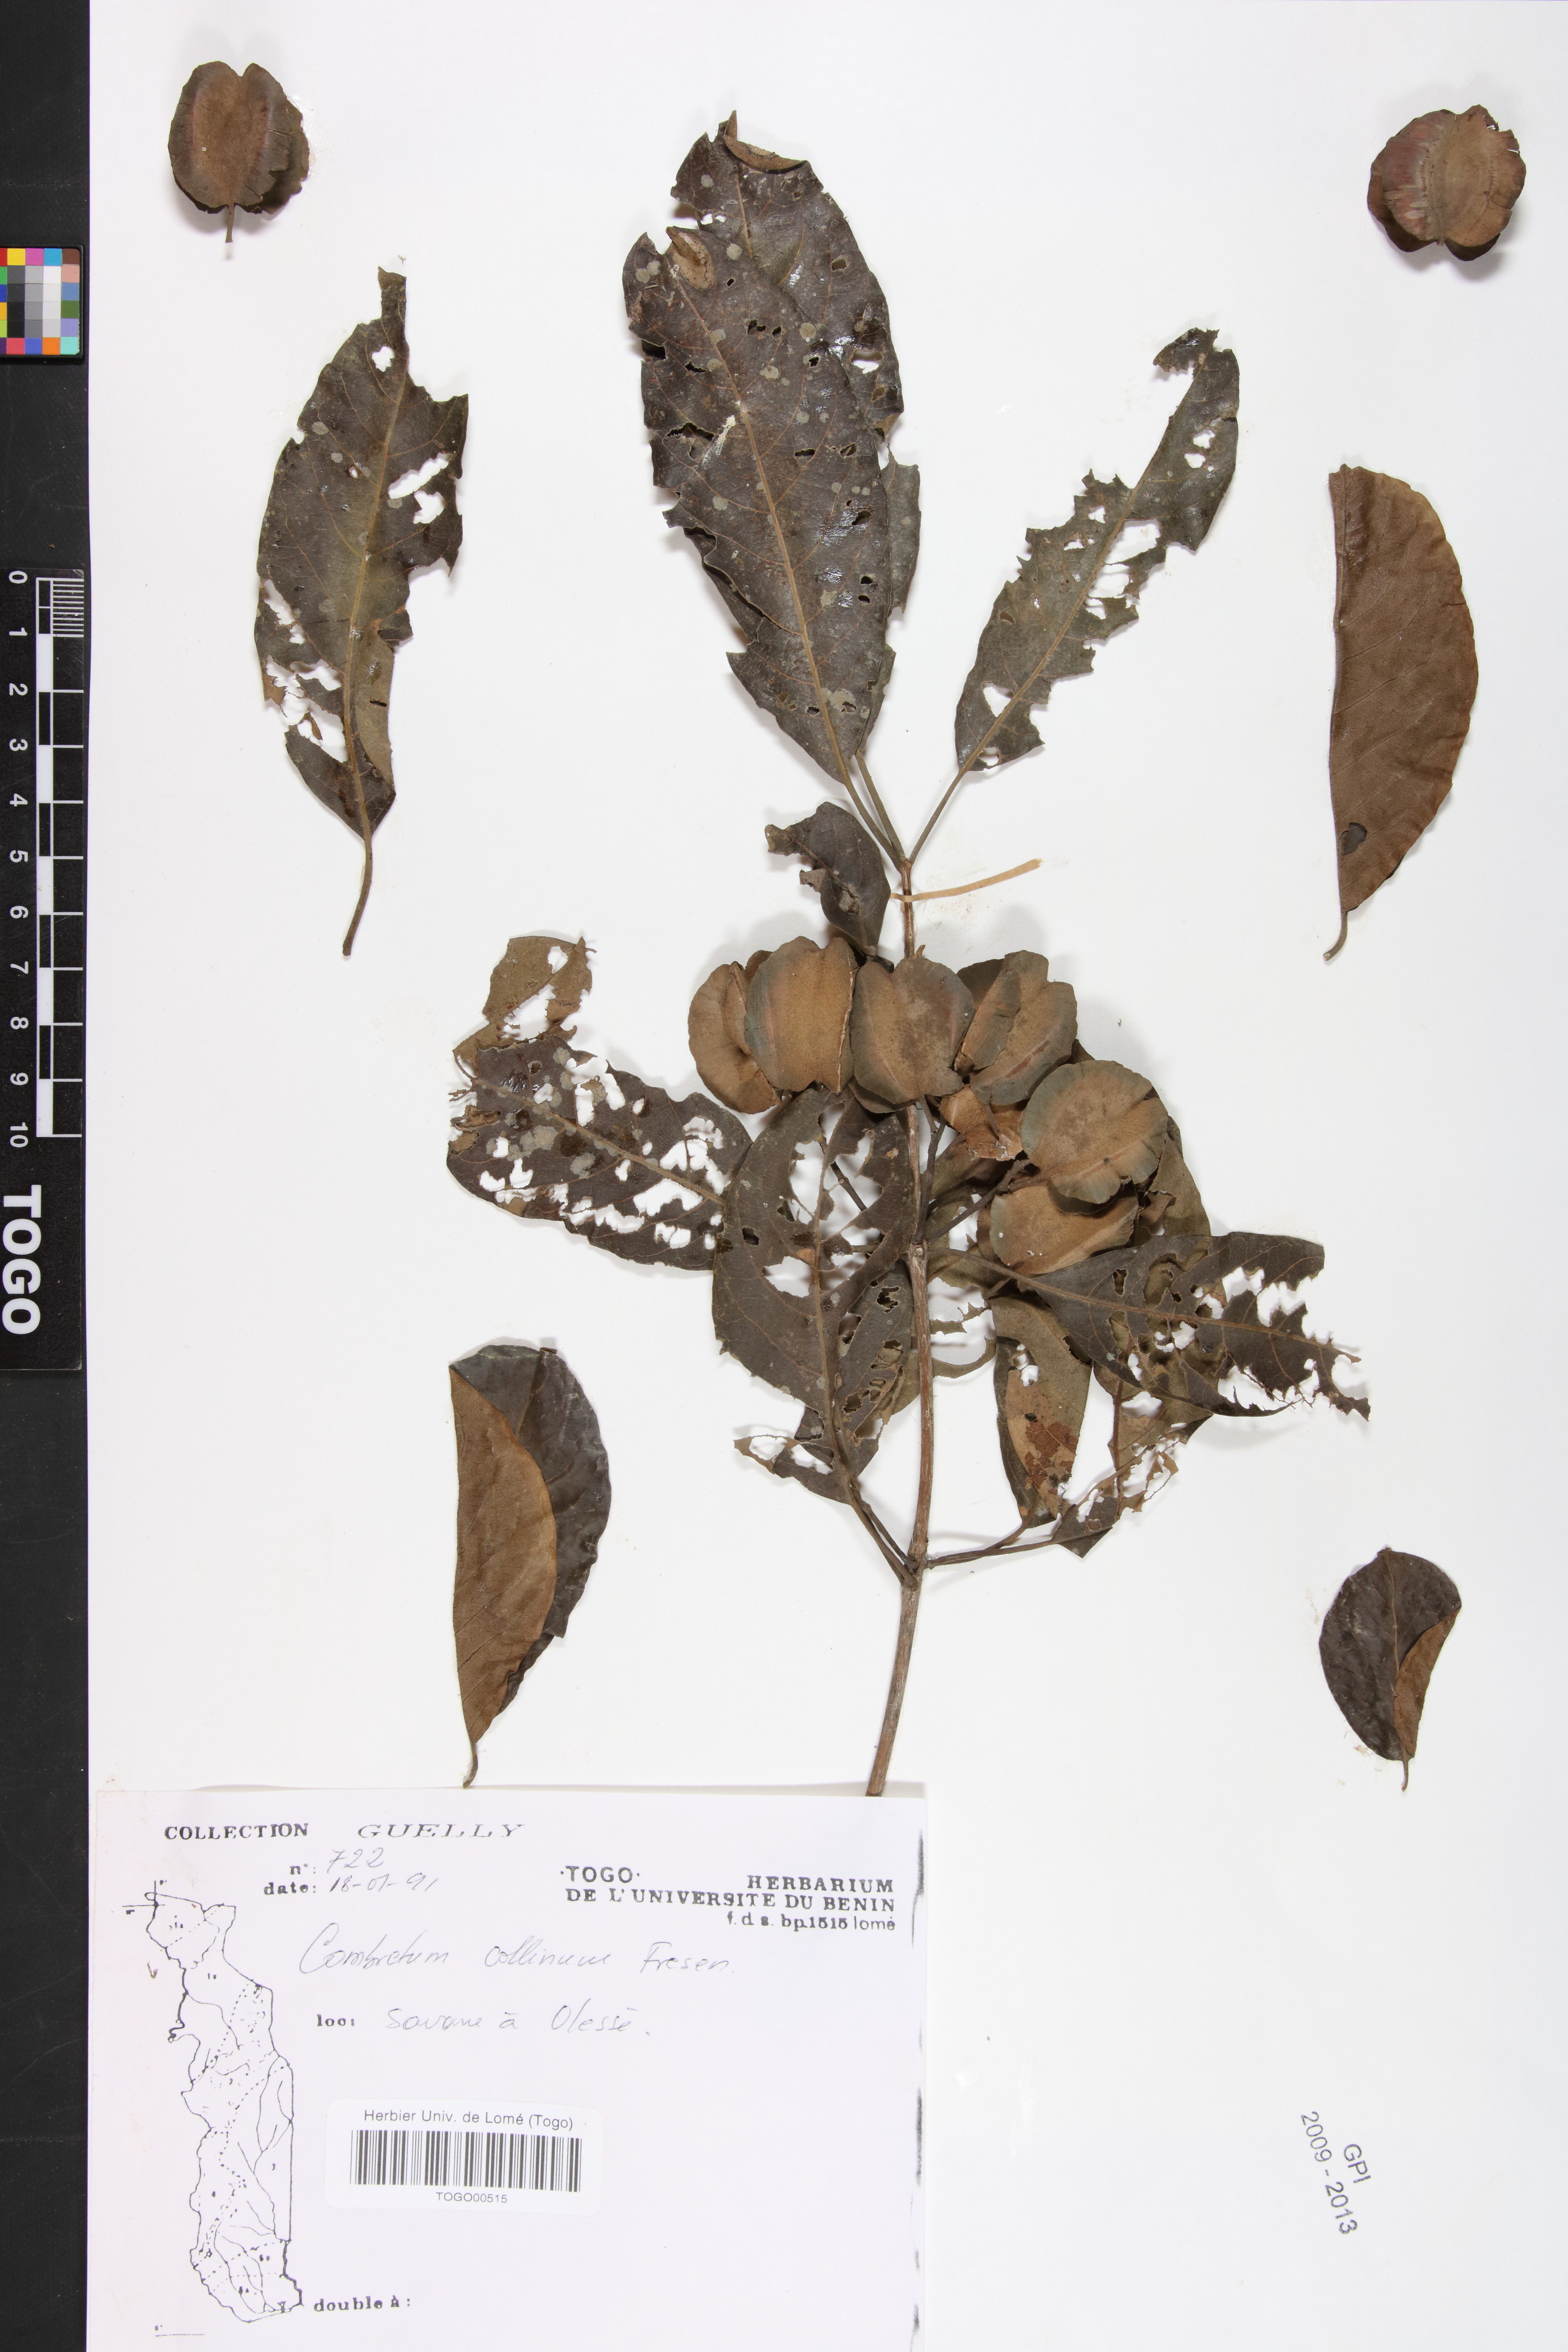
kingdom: Plantae
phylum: Tracheophyta
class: Magnoliopsida
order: Myrtales
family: Combretaceae
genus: Combretum
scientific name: Combretum collinum
